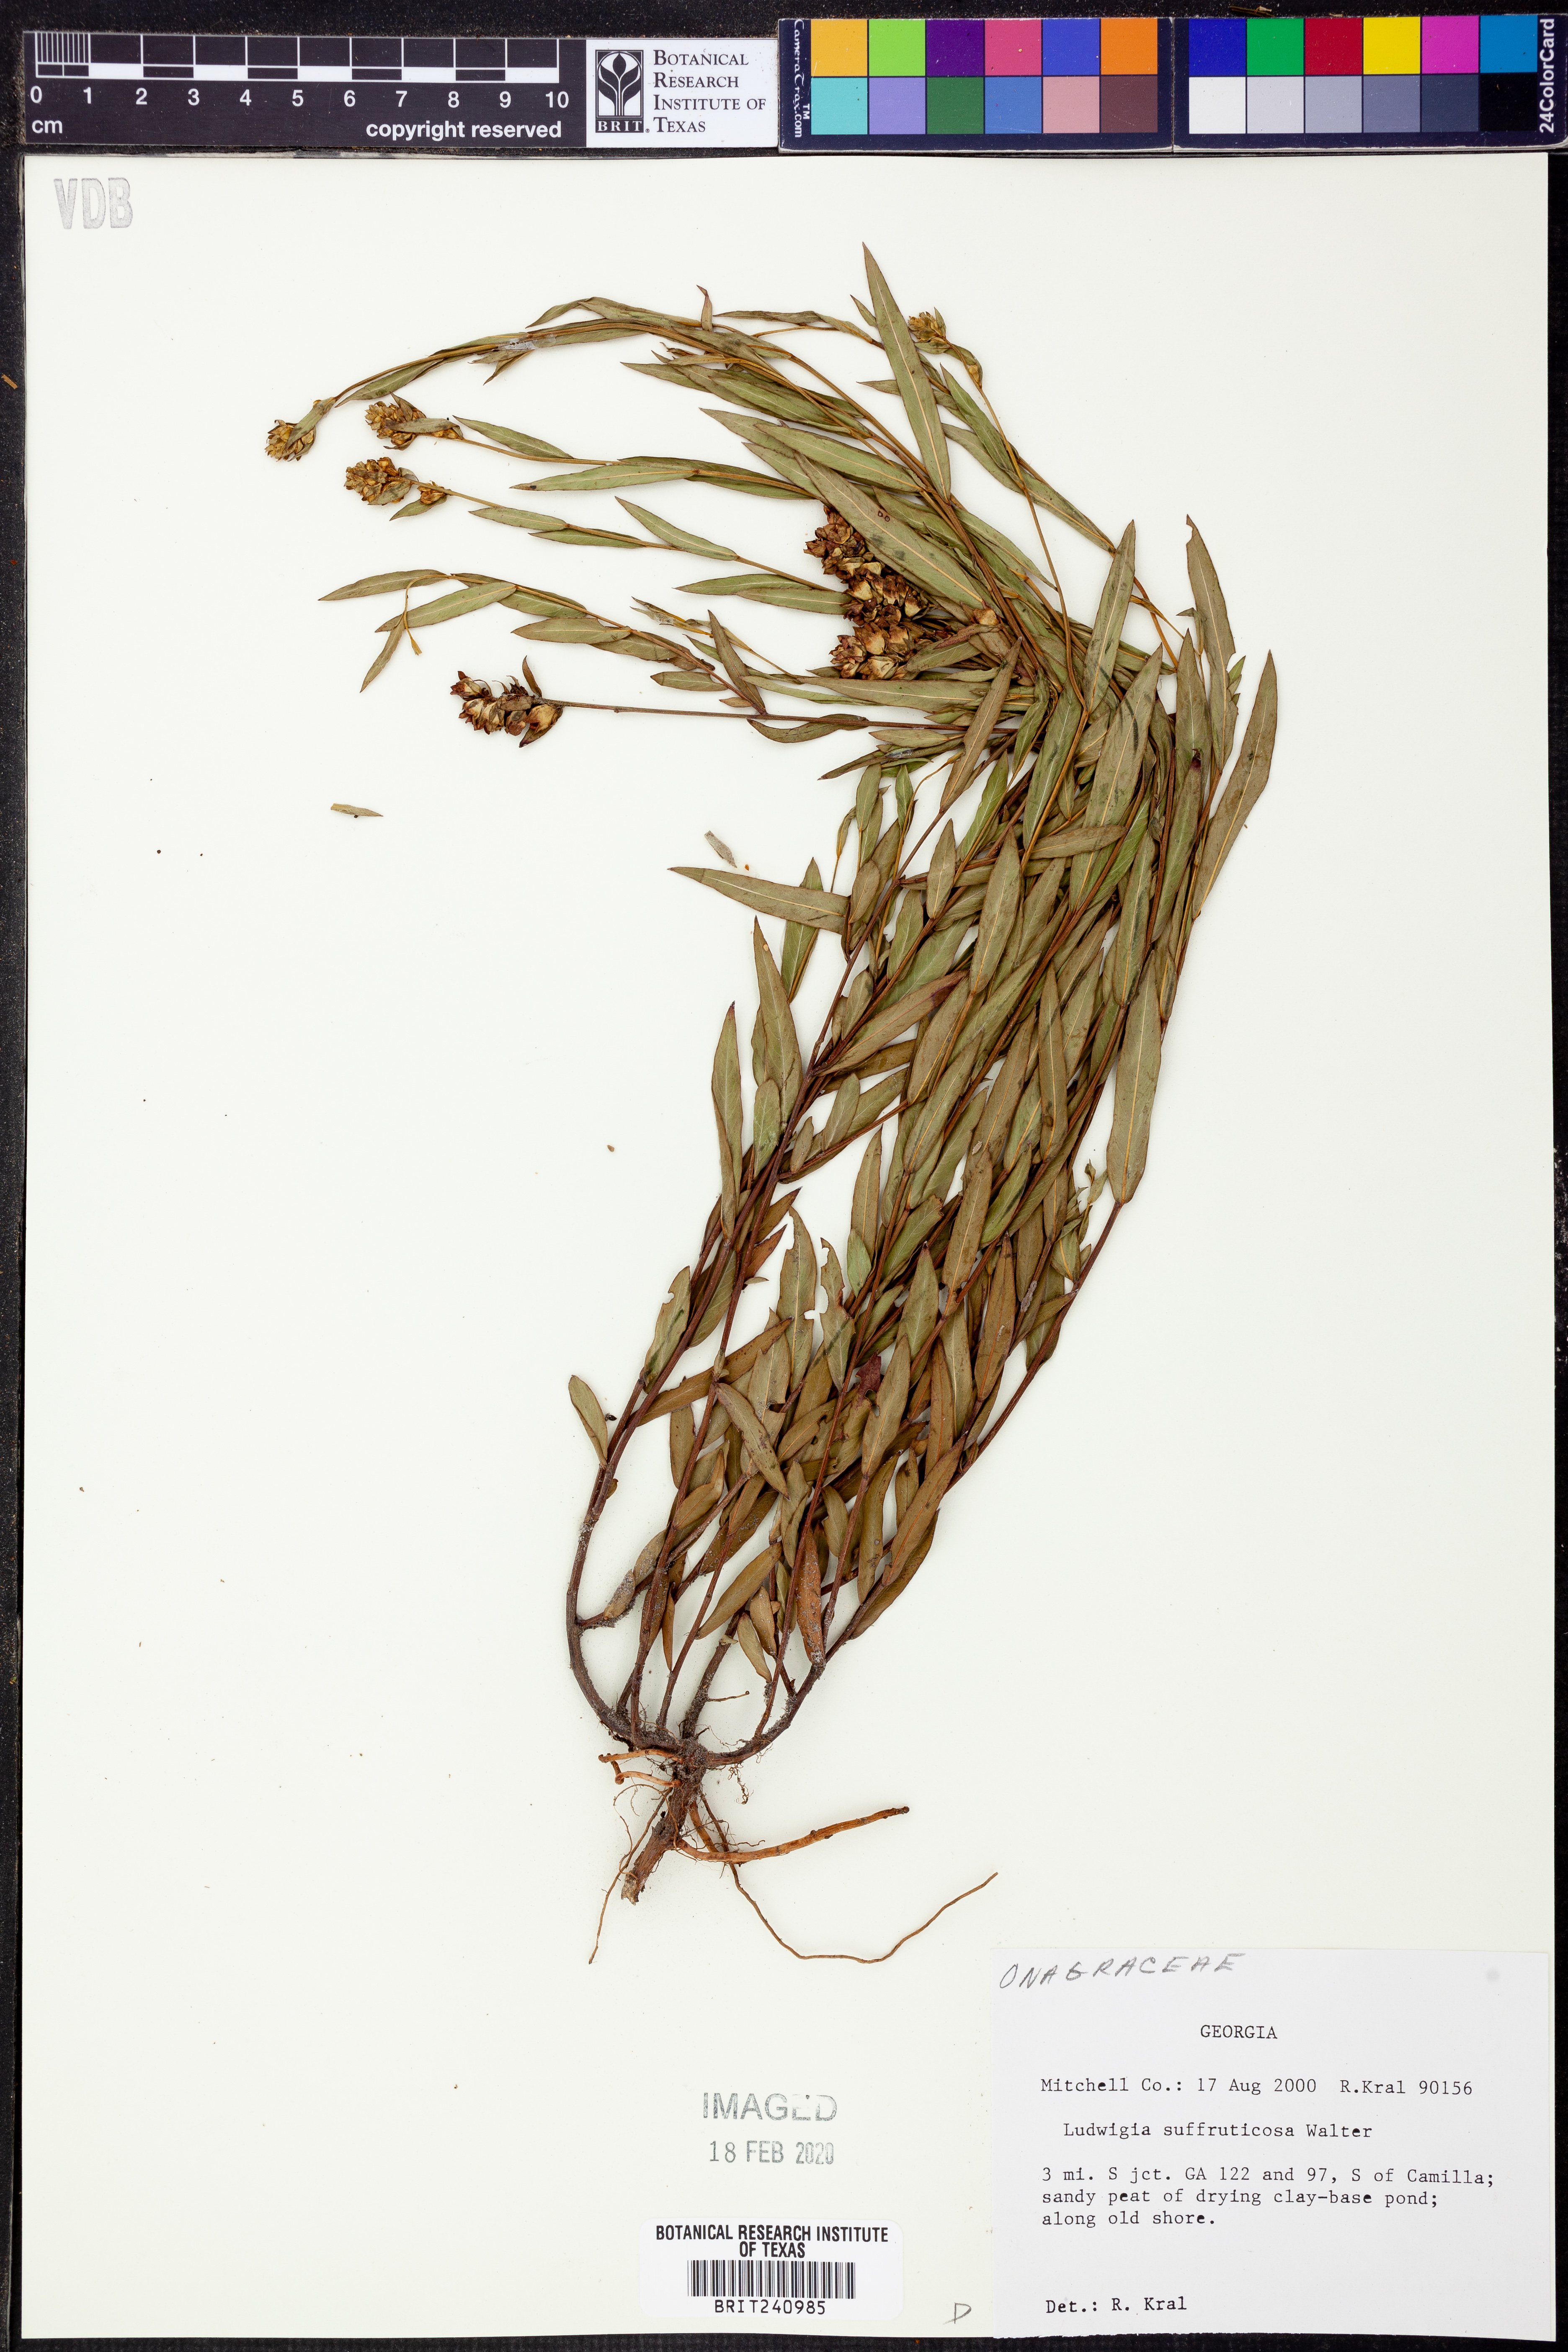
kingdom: Plantae
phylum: Tracheophyta
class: Magnoliopsida
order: Myrtales
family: Onagraceae
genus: Ludwigia
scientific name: Ludwigia suffruticosa
